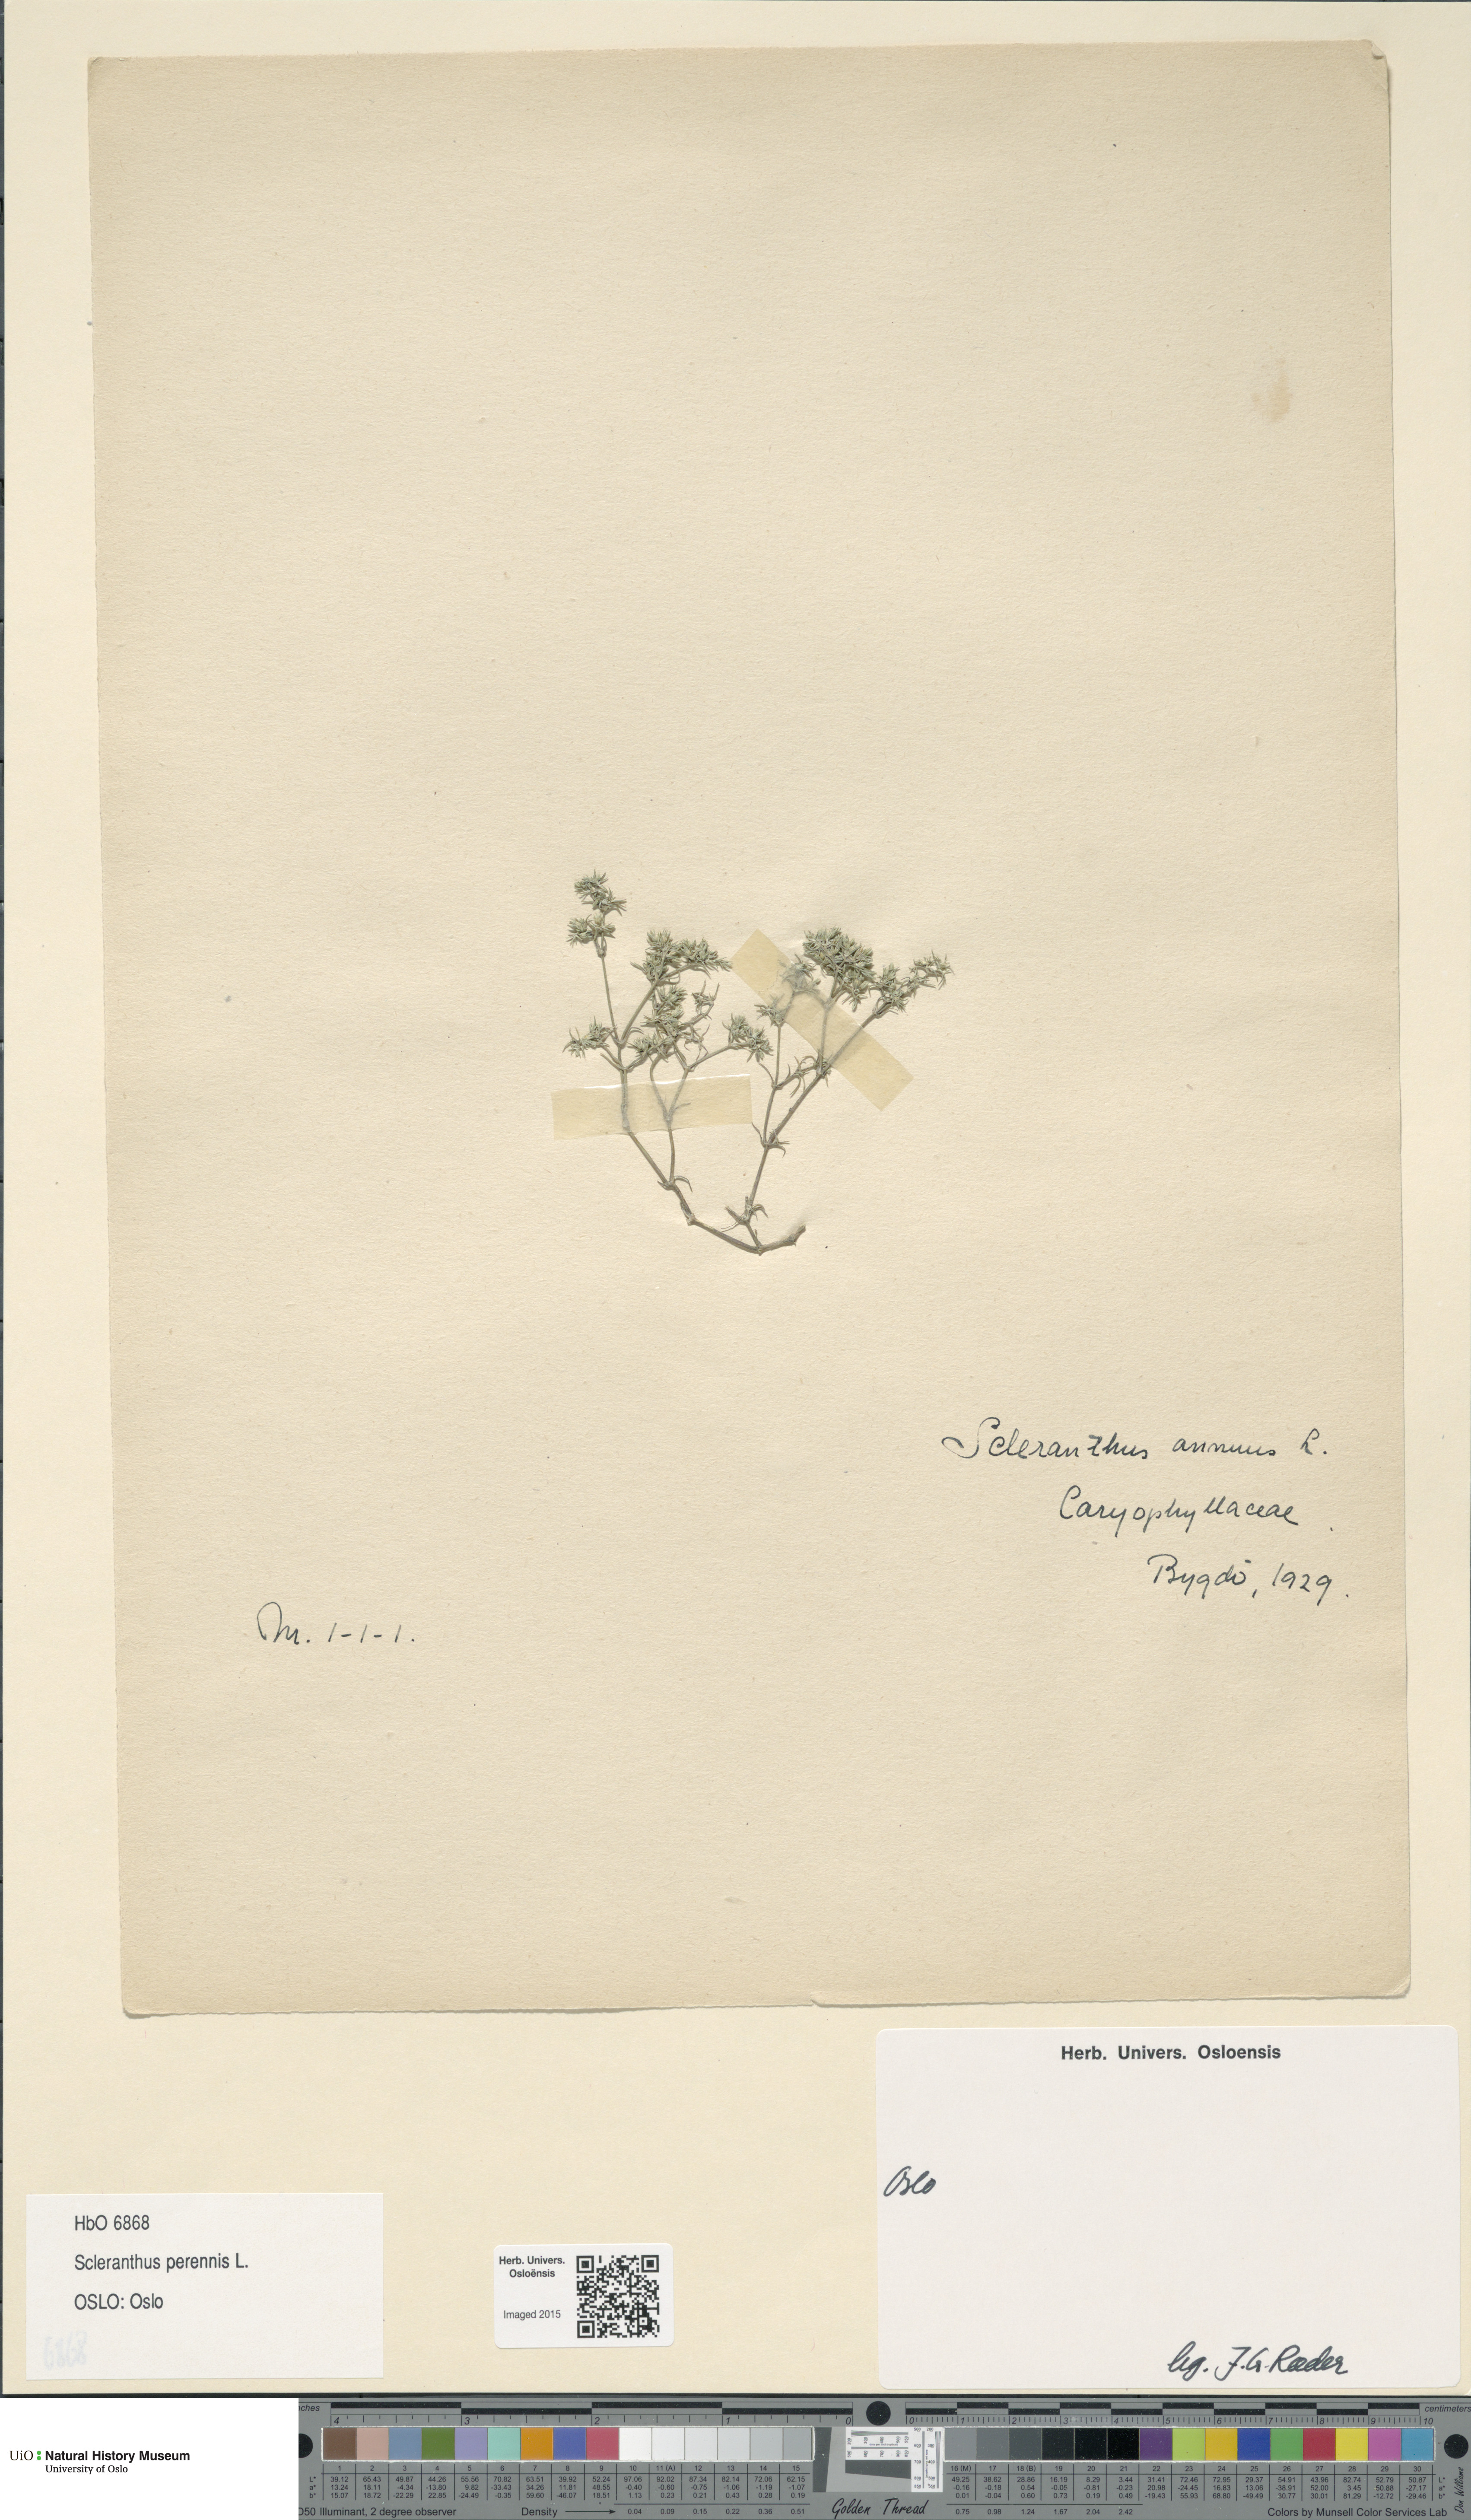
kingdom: Plantae
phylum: Tracheophyta
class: Magnoliopsida
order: Caryophyllales
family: Caryophyllaceae
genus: Scleranthus
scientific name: Scleranthus perennis
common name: Perennial knawel
